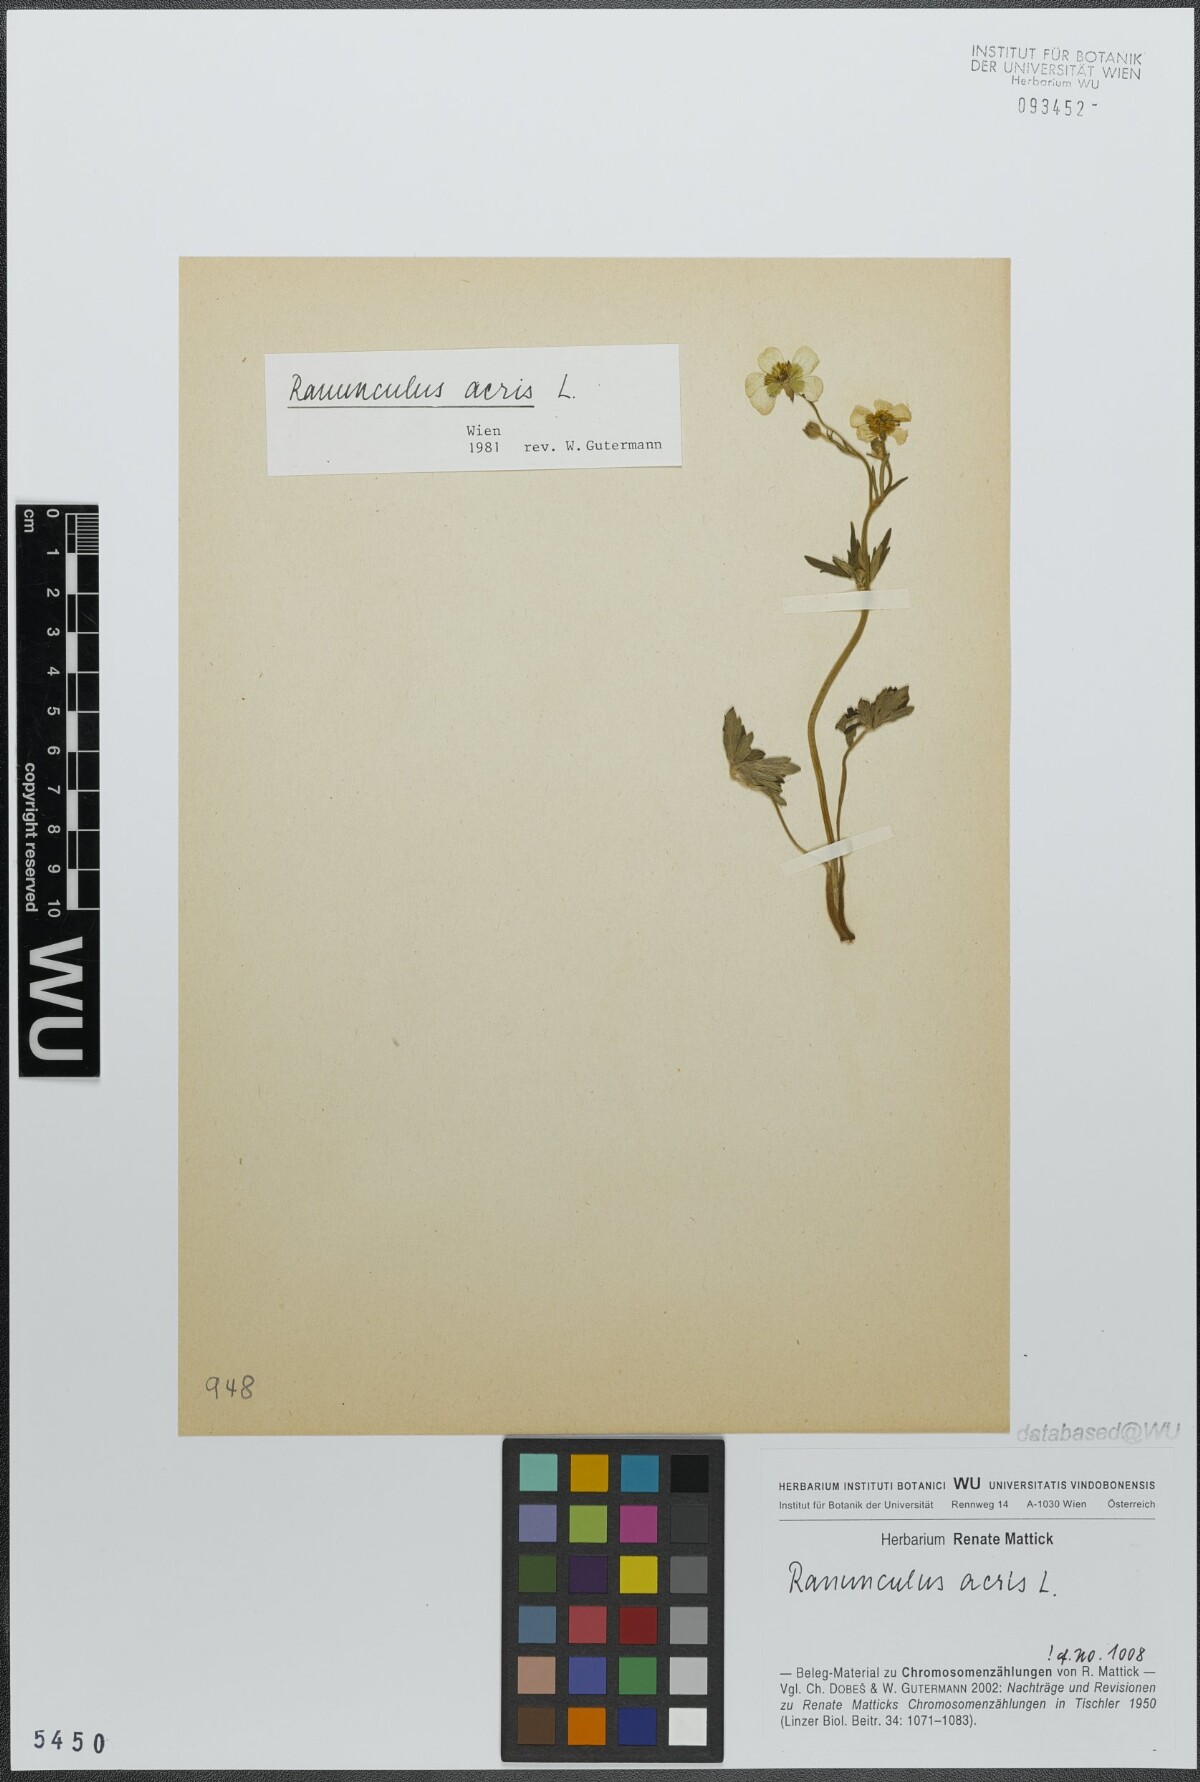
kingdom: Plantae
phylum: Tracheophyta
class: Magnoliopsida
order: Ranunculales
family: Ranunculaceae
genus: Ranunculus
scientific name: Ranunculus acris
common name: Meadow buttercup
